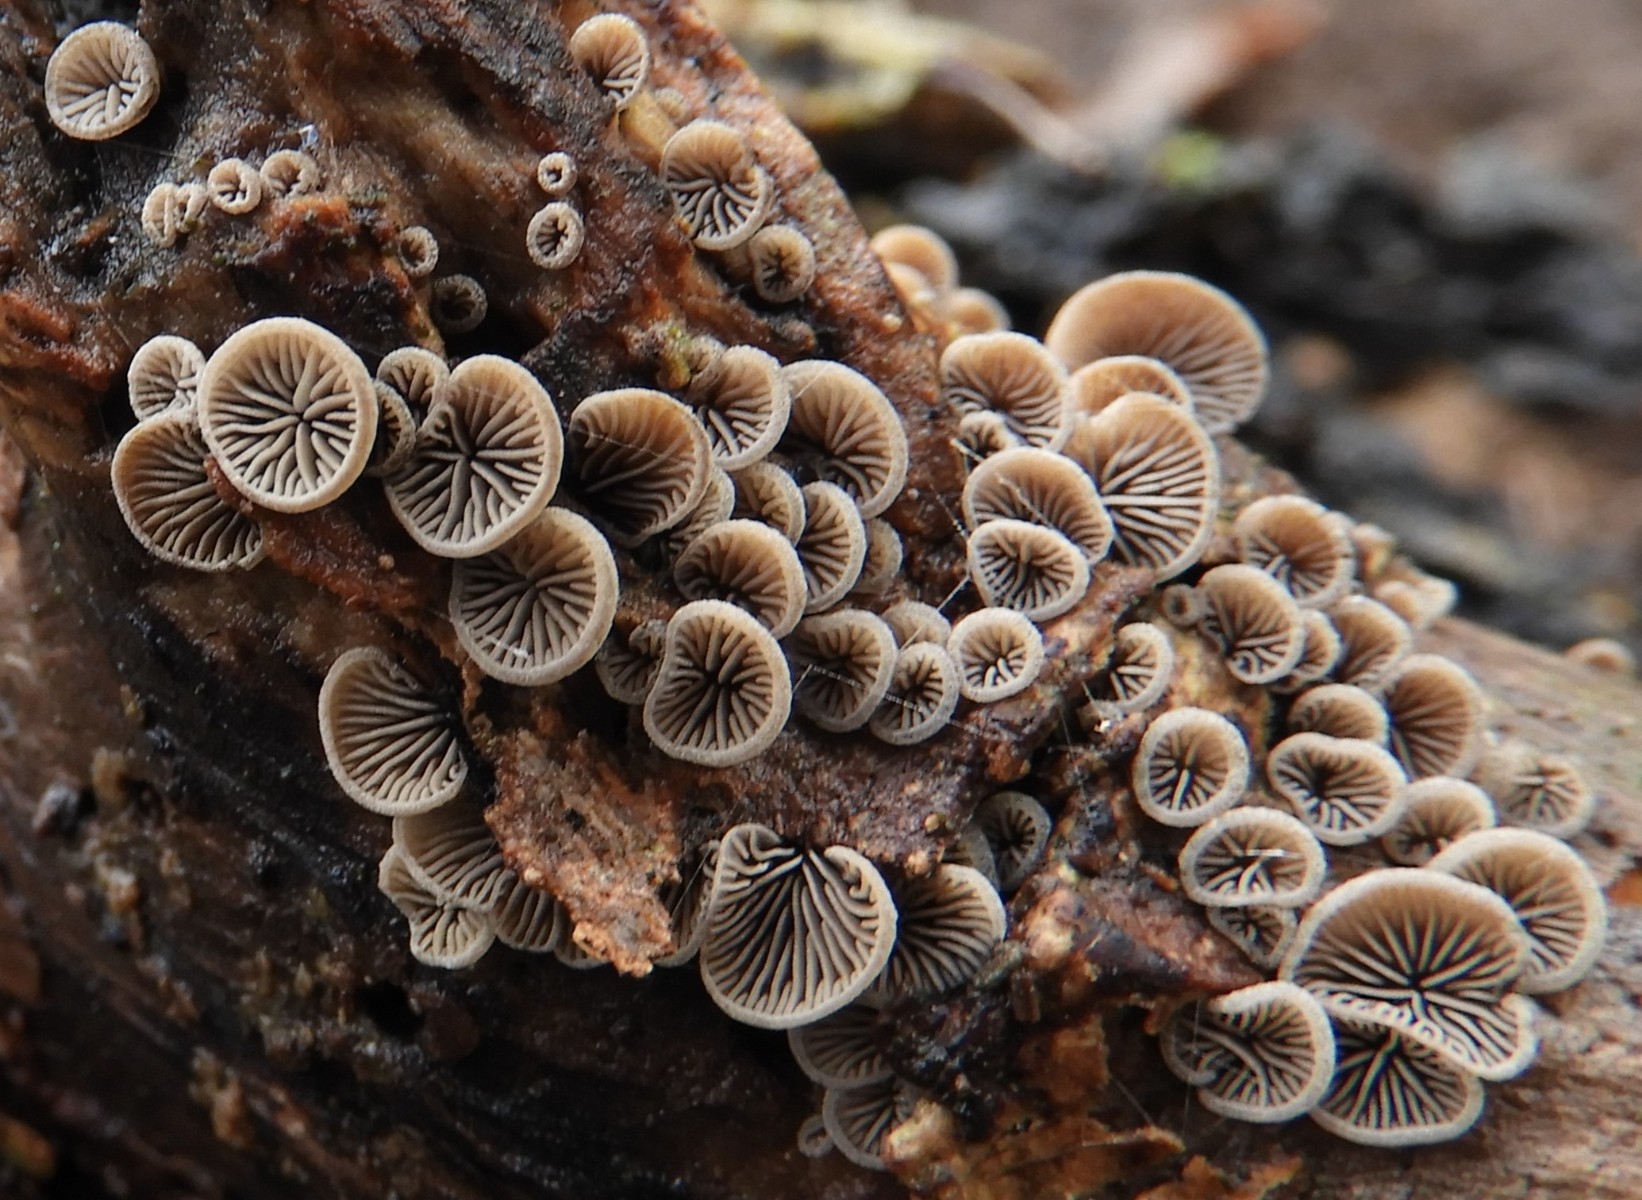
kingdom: Fungi
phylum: Basidiomycota
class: Agaricomycetes
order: Agaricales
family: Pleurotaceae
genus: Resupinatus
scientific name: Resupinatus trichotis
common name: mørkfiltet barkhat
